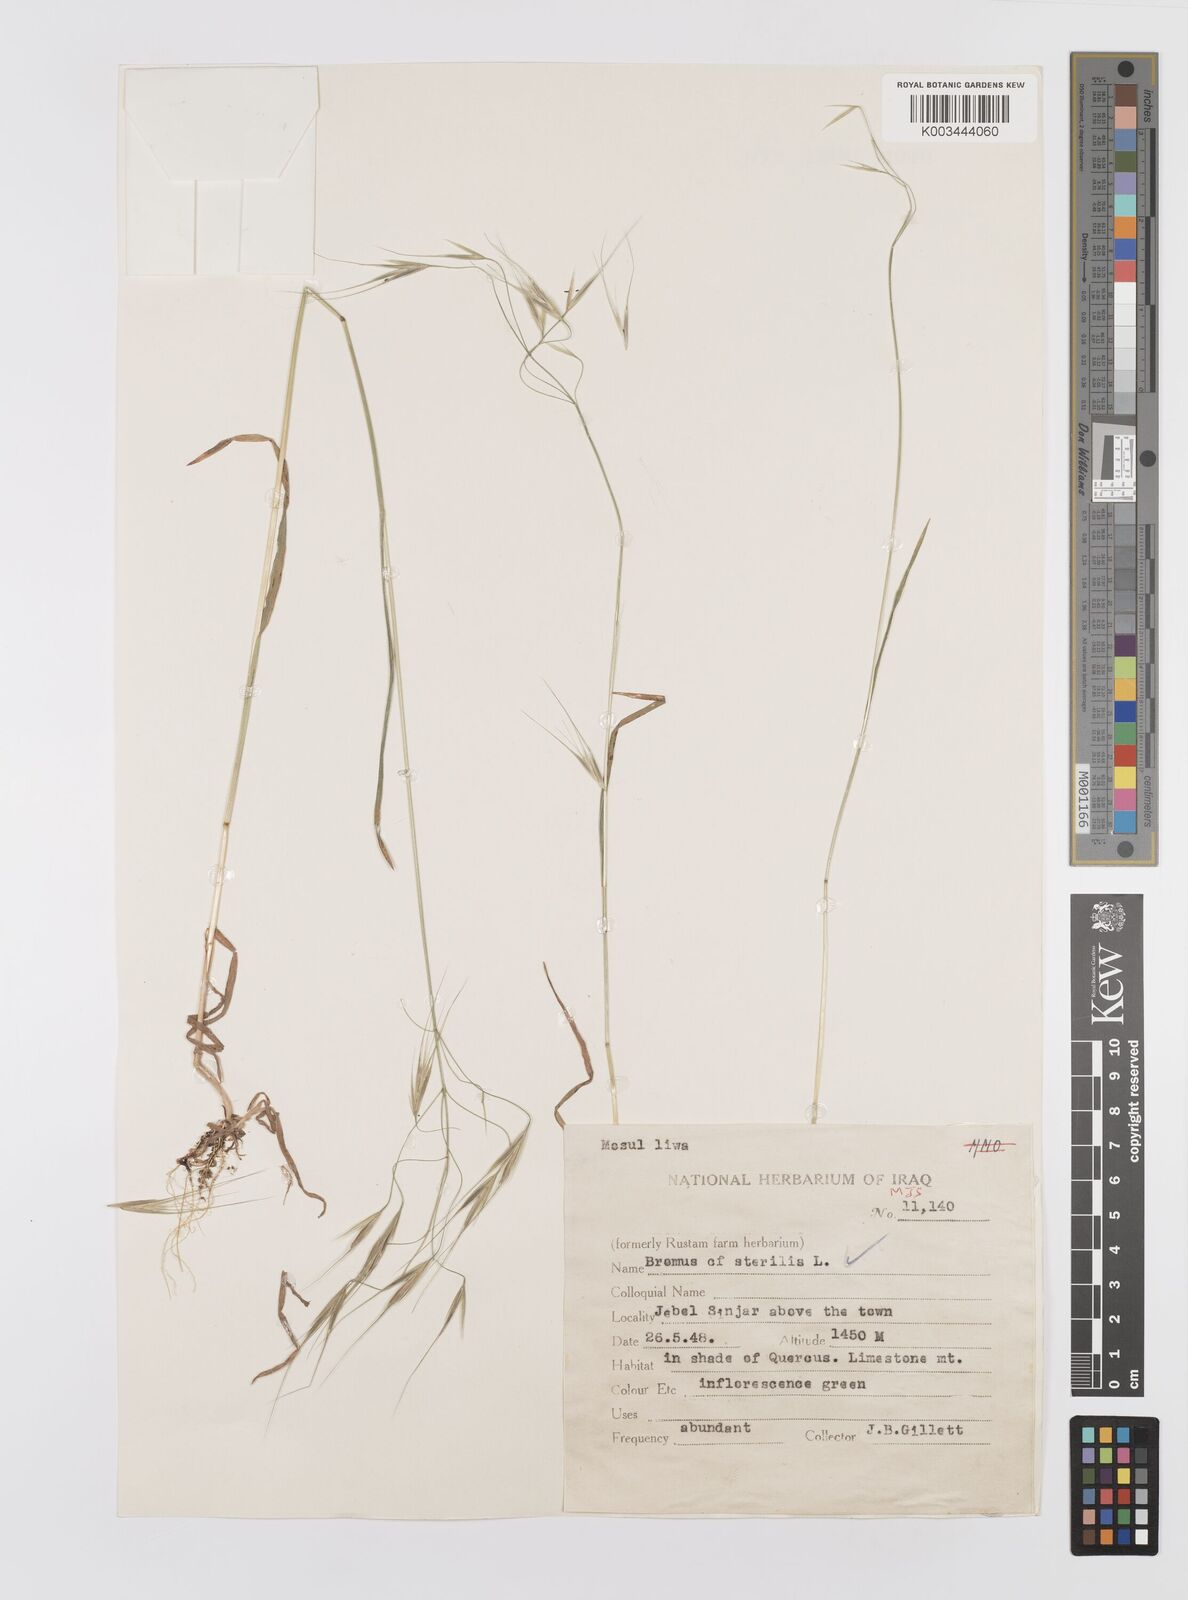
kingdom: Plantae
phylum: Tracheophyta
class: Liliopsida
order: Poales
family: Poaceae
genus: Bromus
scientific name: Bromus sterilis
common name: Poverty brome
